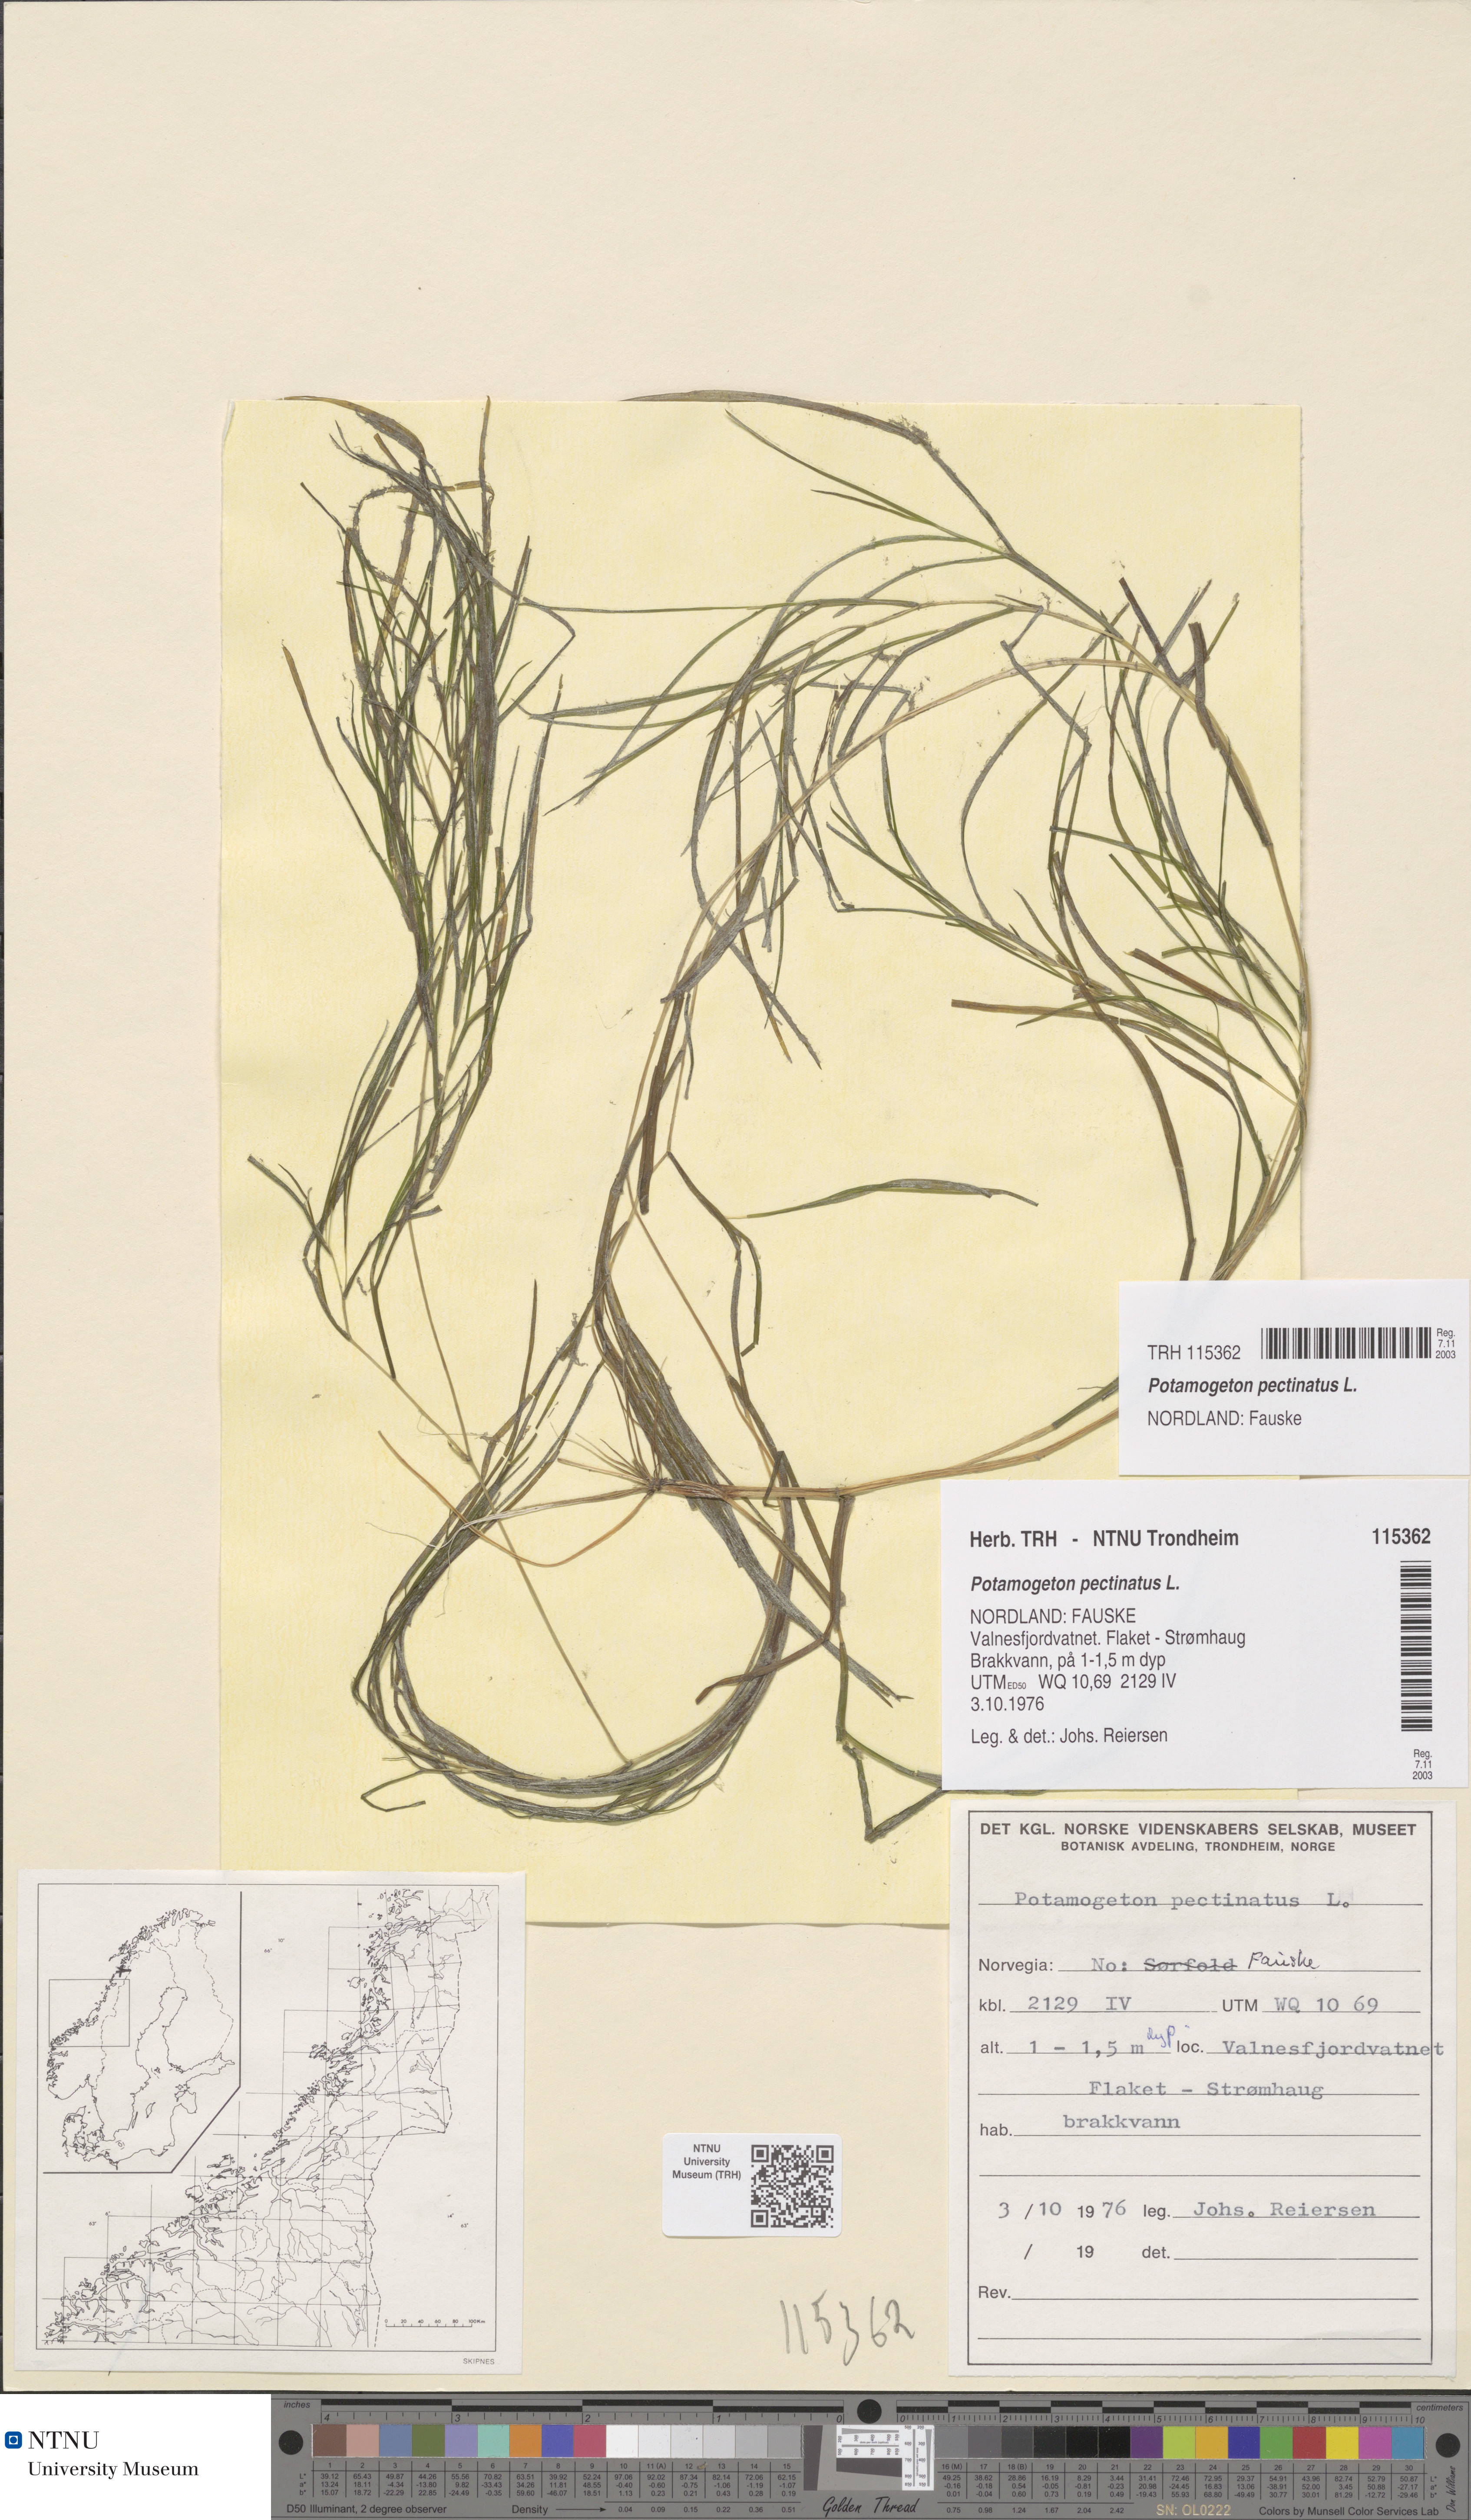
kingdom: Plantae
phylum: Tracheophyta
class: Liliopsida
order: Alismatales
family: Potamogetonaceae
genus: Stuckenia
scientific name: Stuckenia pectinata
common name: Sago pondweed
